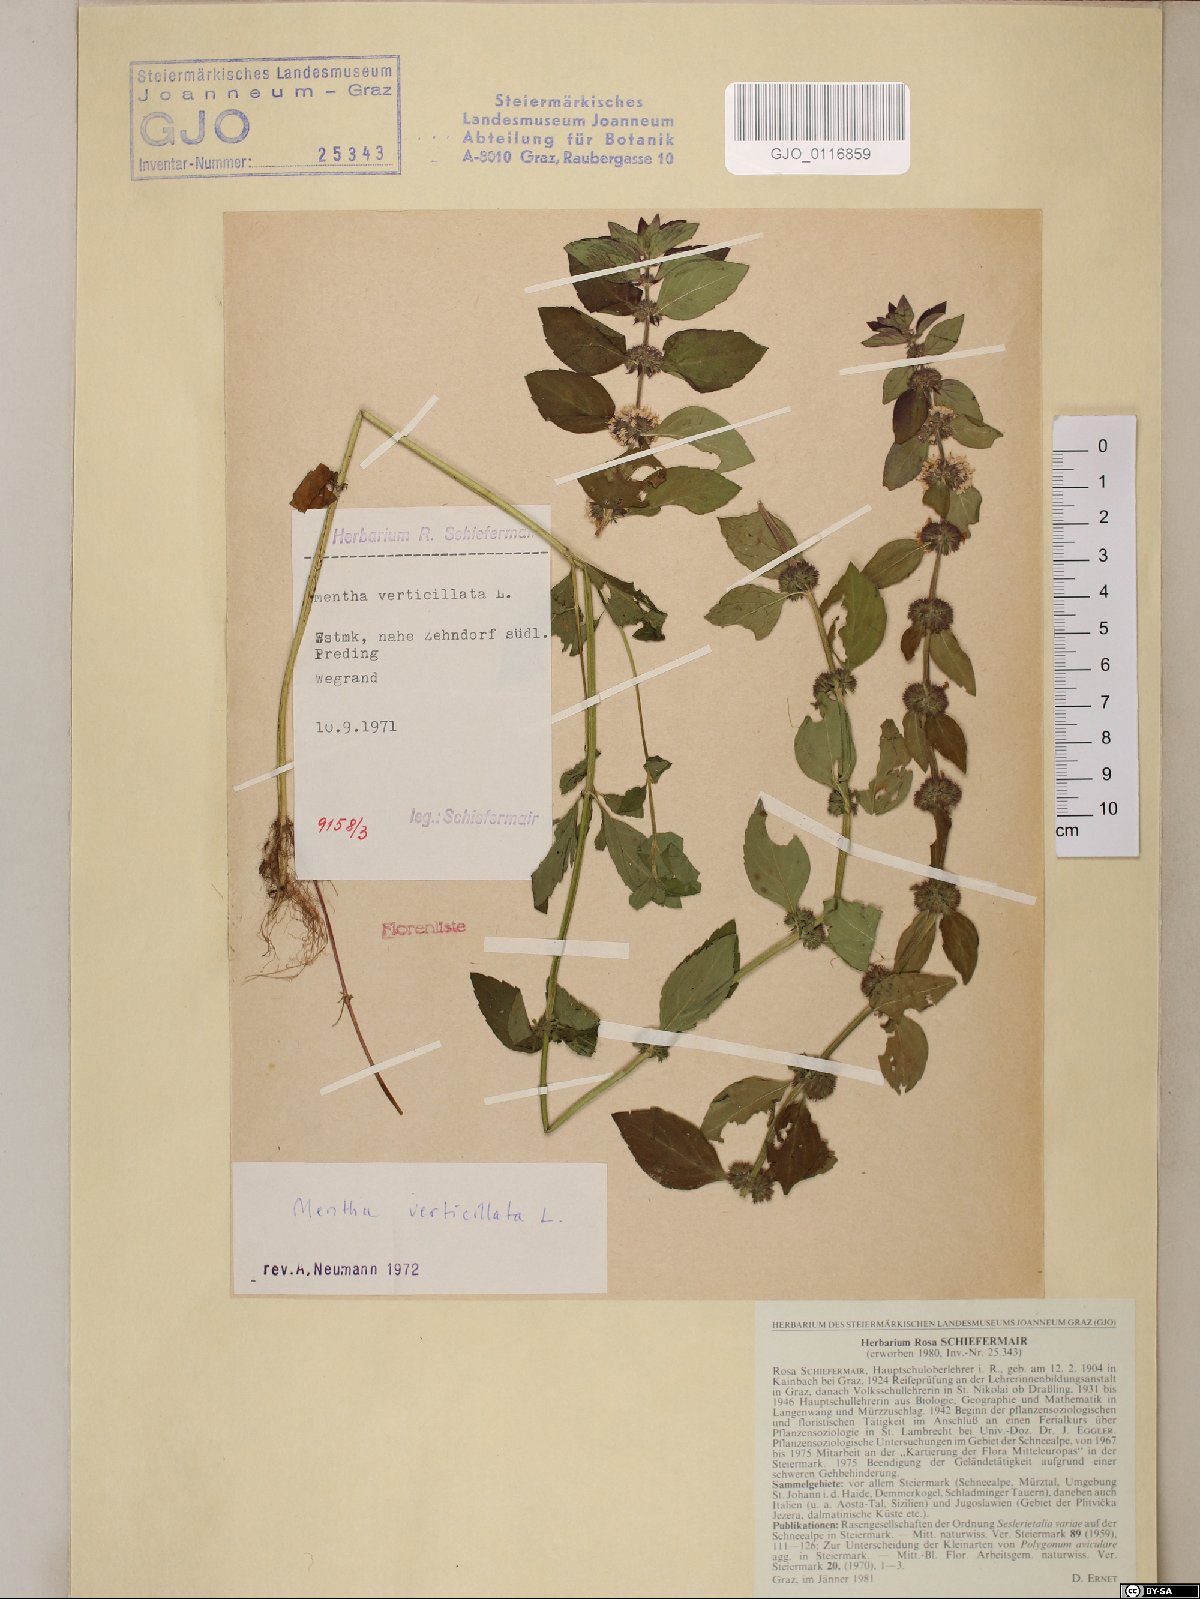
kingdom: Plantae
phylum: Tracheophyta
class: Magnoliopsida
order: Lamiales
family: Lamiaceae
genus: Mentha
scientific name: Mentha verticillata
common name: Mint
